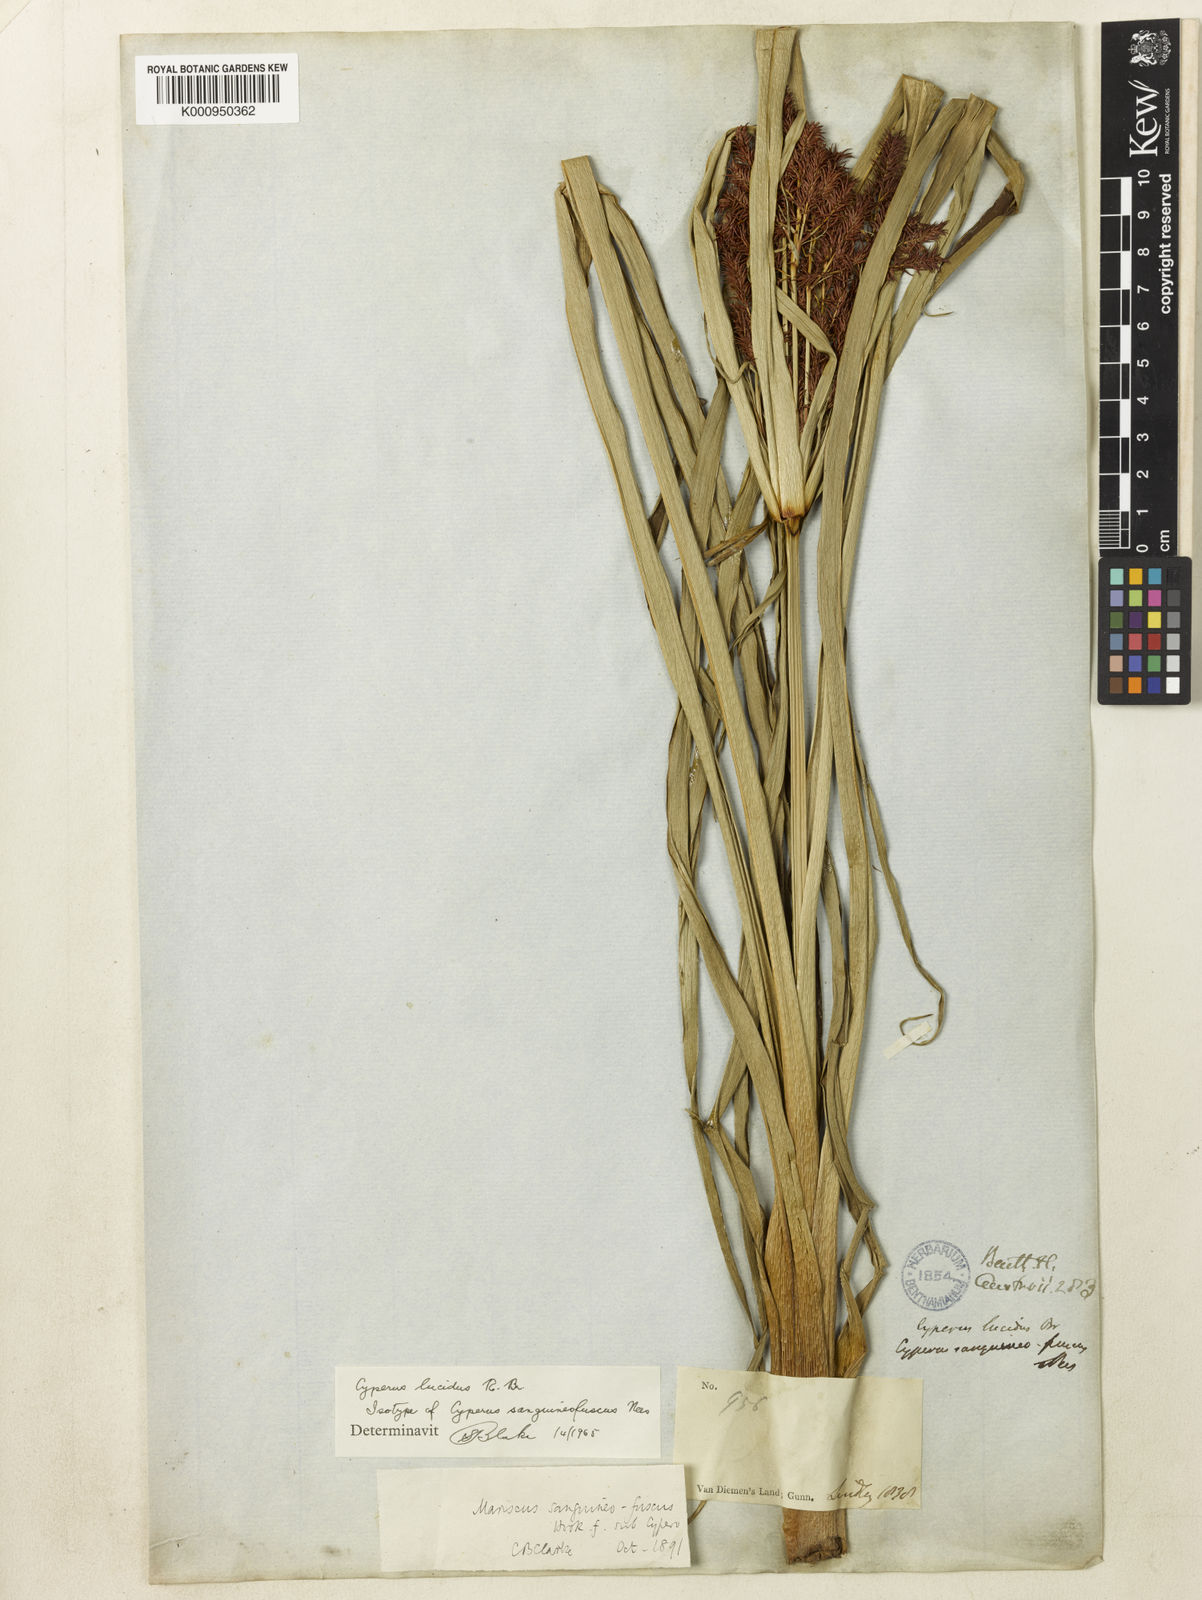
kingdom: Plantae
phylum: Tracheophyta
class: Liliopsida
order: Poales
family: Cyperaceae
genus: Cyperus
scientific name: Cyperus lucidus
